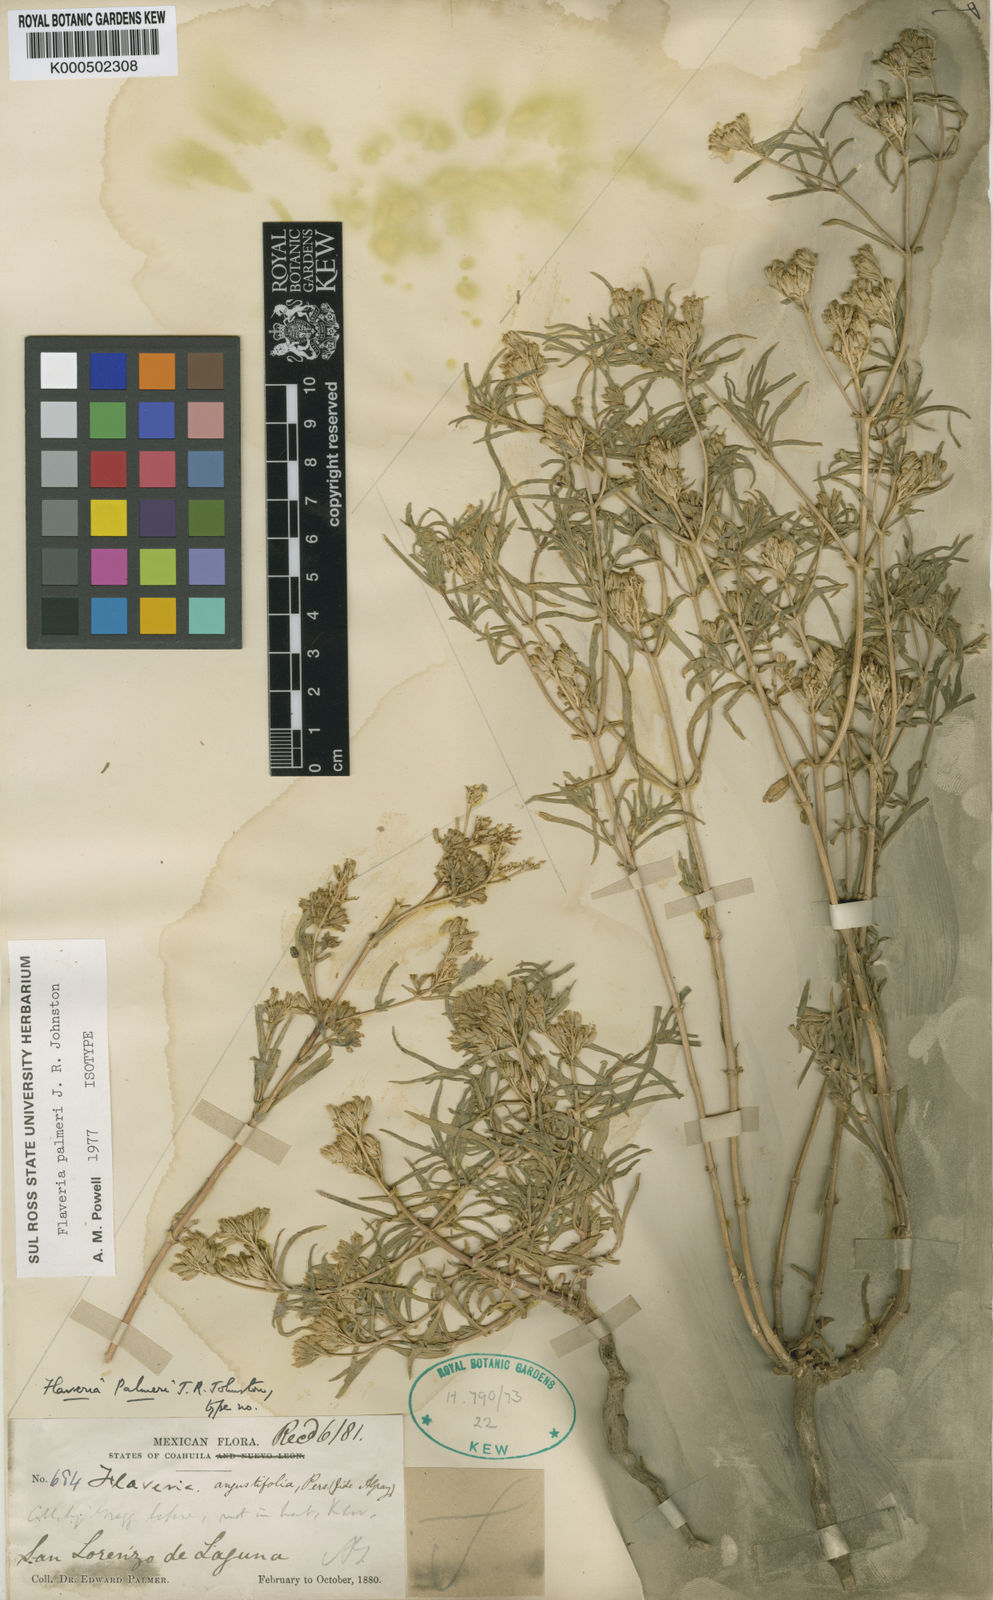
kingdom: Plantae
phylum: Tracheophyta
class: Magnoliopsida
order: Asterales
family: Asteraceae
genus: Flaveria
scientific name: Flaveria palmeri
